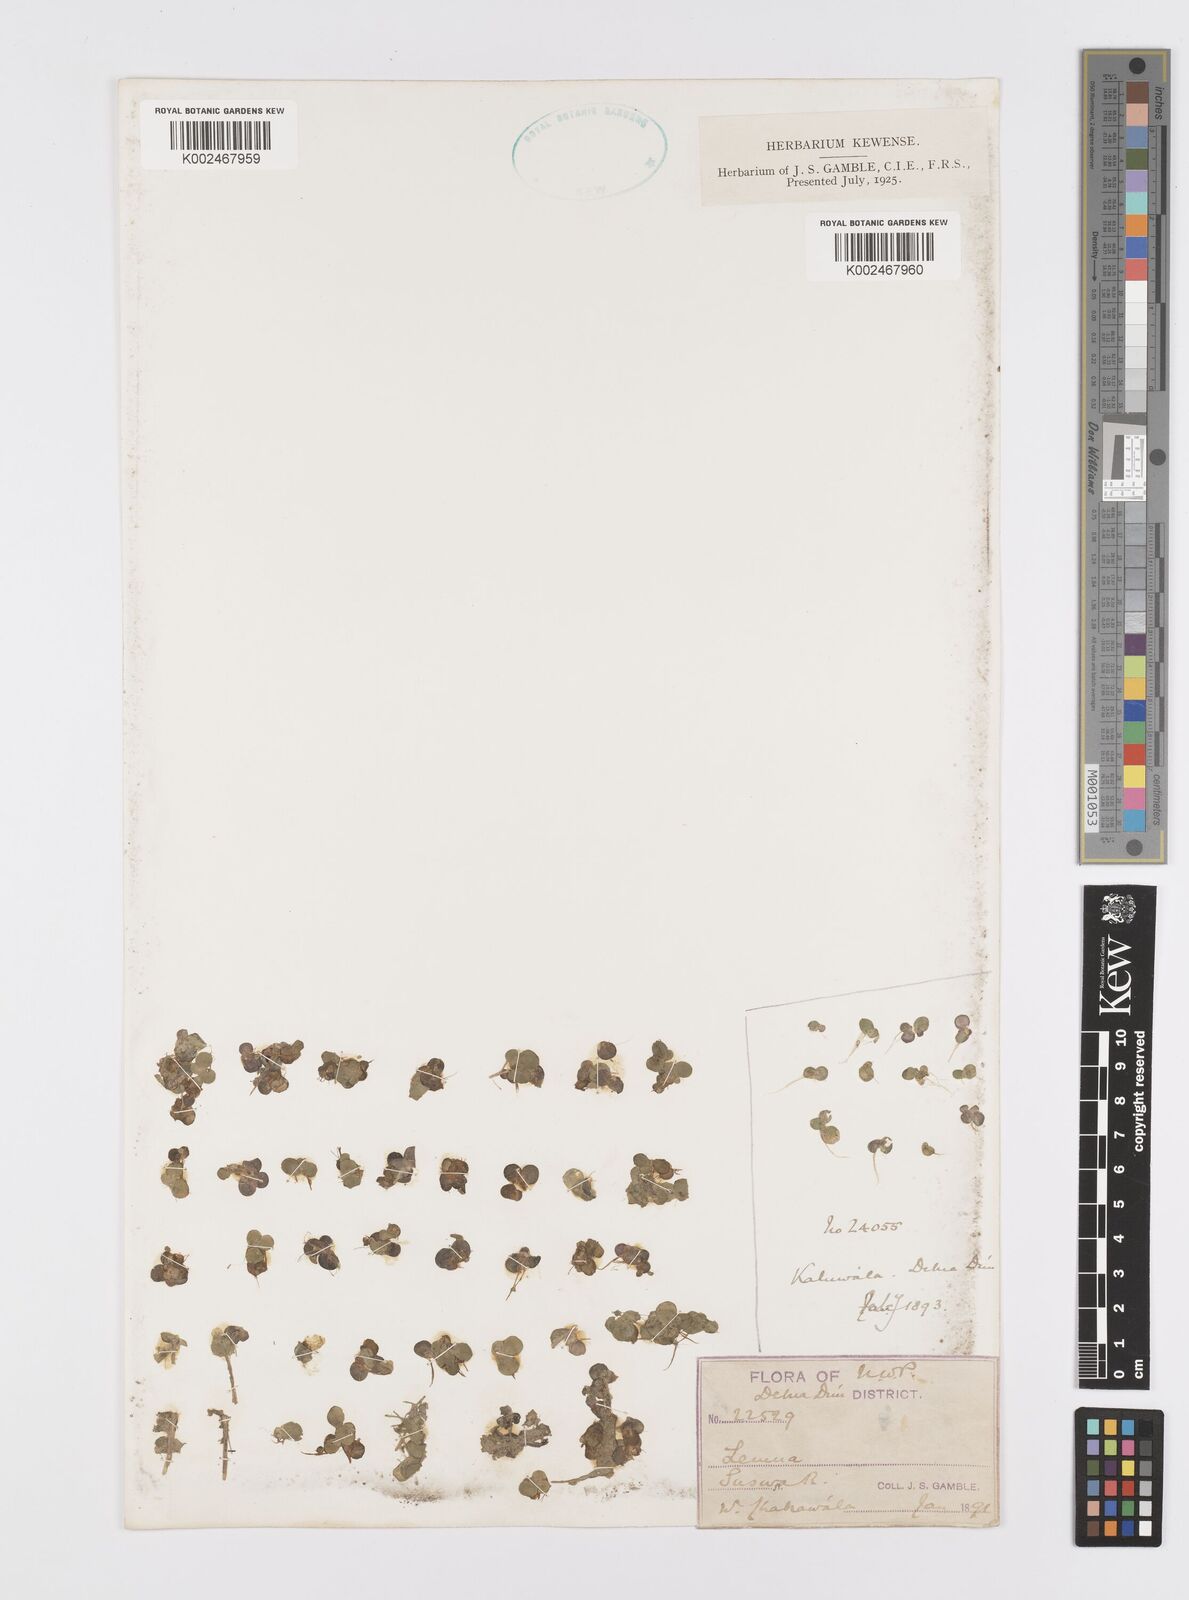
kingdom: Plantae
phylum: Tracheophyta
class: Liliopsida
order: Alismatales
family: Araceae
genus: Lemna
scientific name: Lemna
